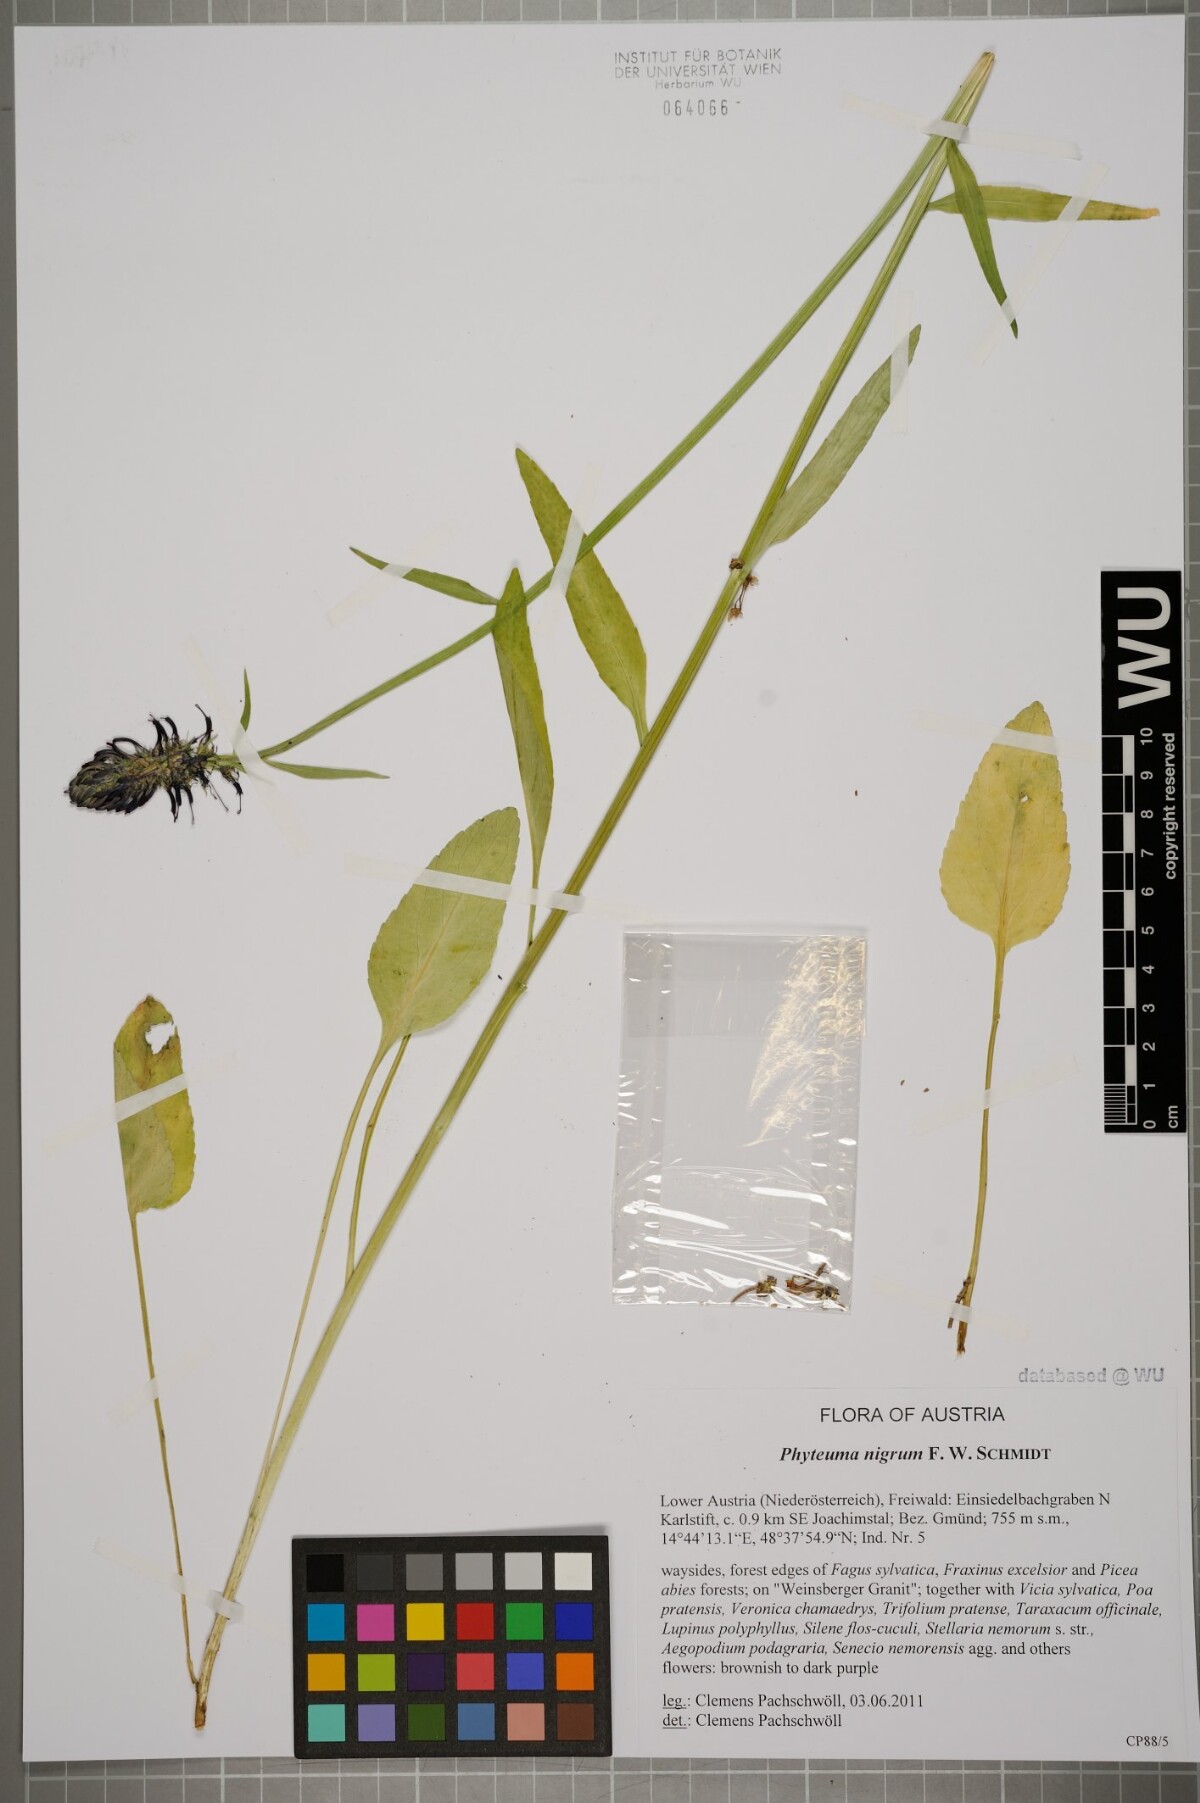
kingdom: Plantae
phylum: Tracheophyta
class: Magnoliopsida
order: Asterales
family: Campanulaceae
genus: Phyteuma
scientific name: Phyteuma nigrum
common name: Black rampion
